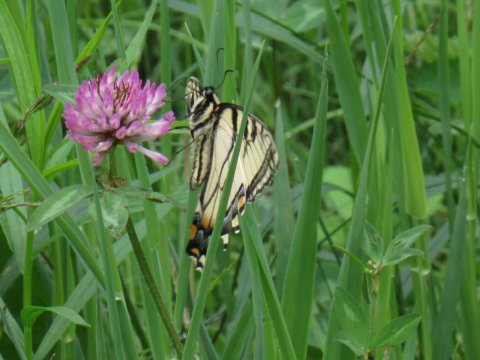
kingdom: Animalia
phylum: Arthropoda
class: Insecta
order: Lepidoptera
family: Papilionidae
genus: Pterourus
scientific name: Pterourus canadensis
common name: Canadian Tiger Swallowtail
